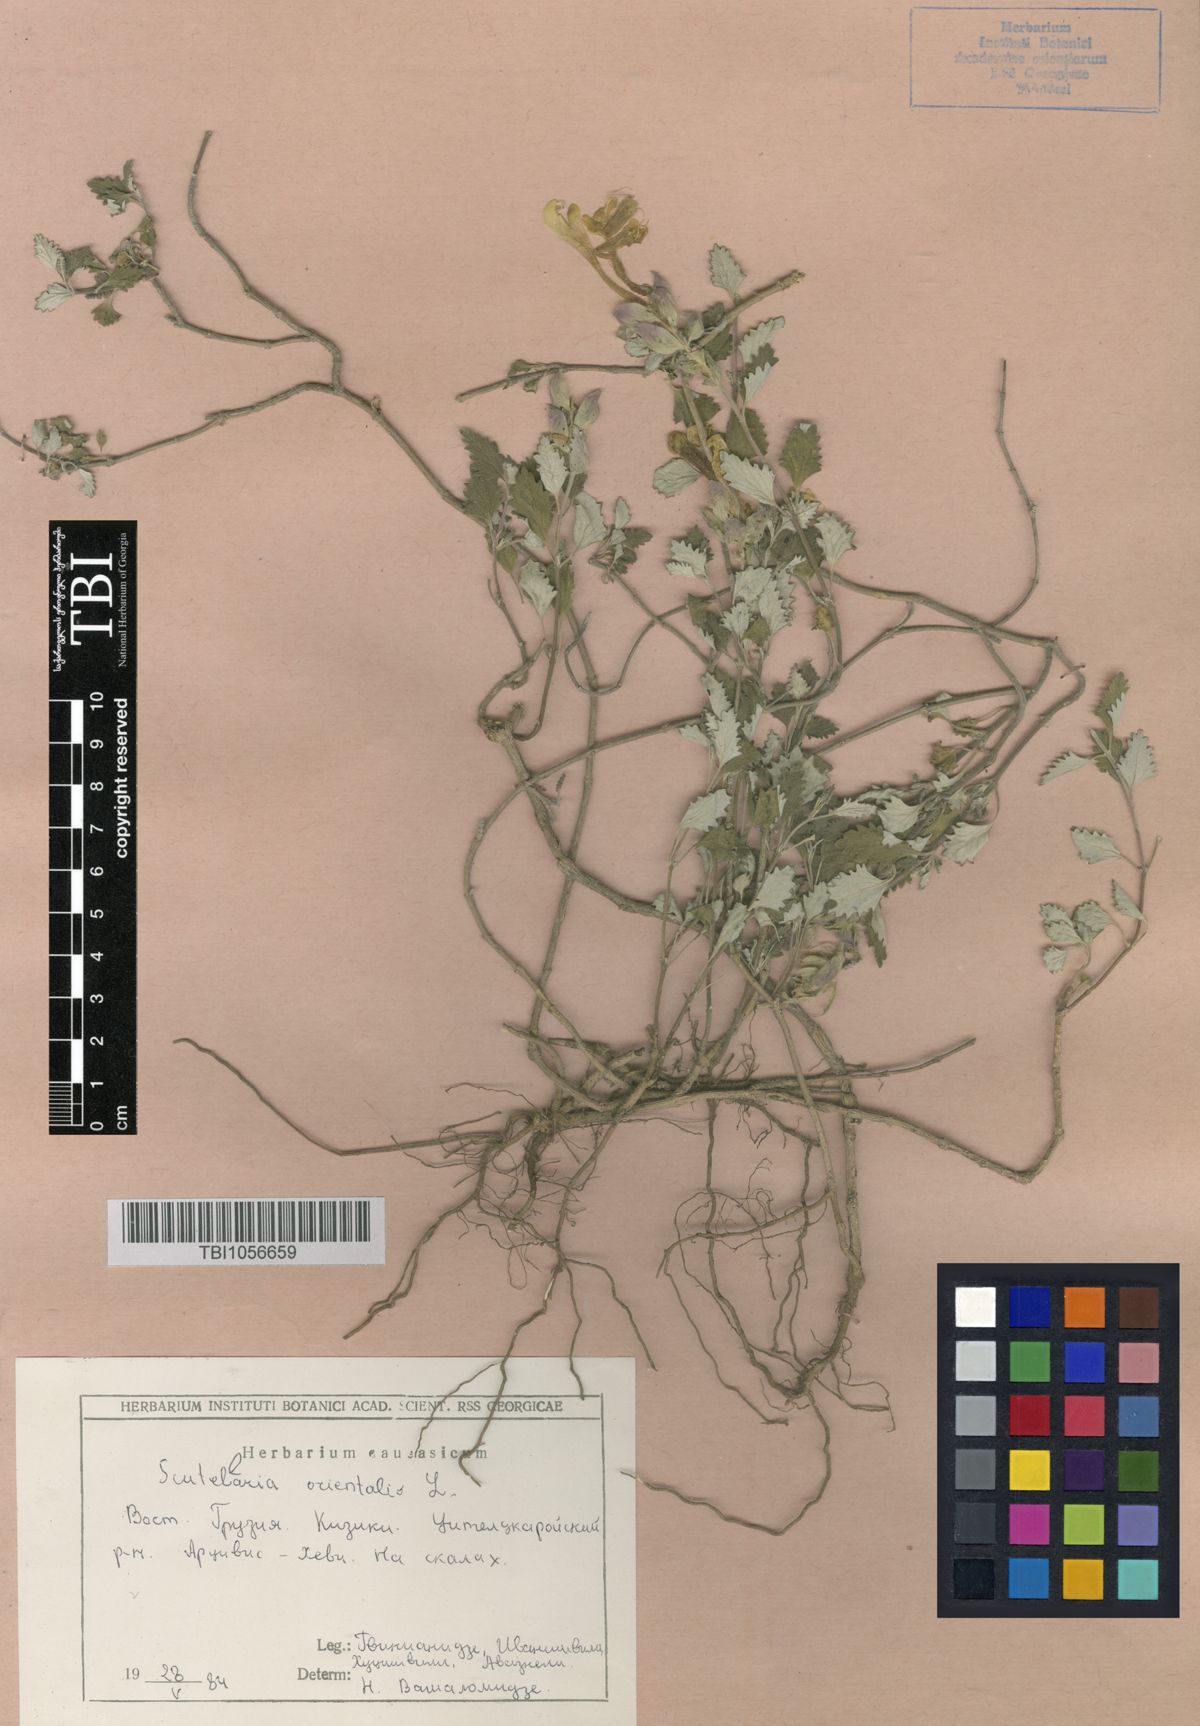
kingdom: Plantae
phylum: Tracheophyta
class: Magnoliopsida
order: Lamiales
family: Lamiaceae
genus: Scutellaria
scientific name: Scutellaria orientalis
